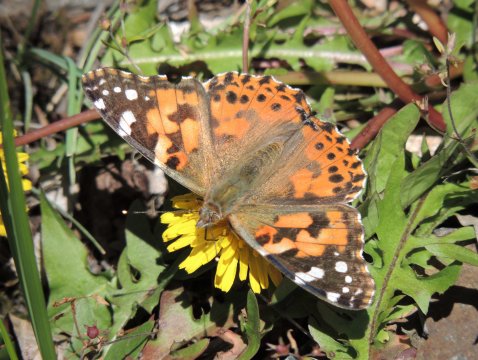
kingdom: Animalia
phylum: Arthropoda
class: Insecta
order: Lepidoptera
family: Nymphalidae
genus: Vanessa
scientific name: Vanessa cardui
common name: Painted Lady
